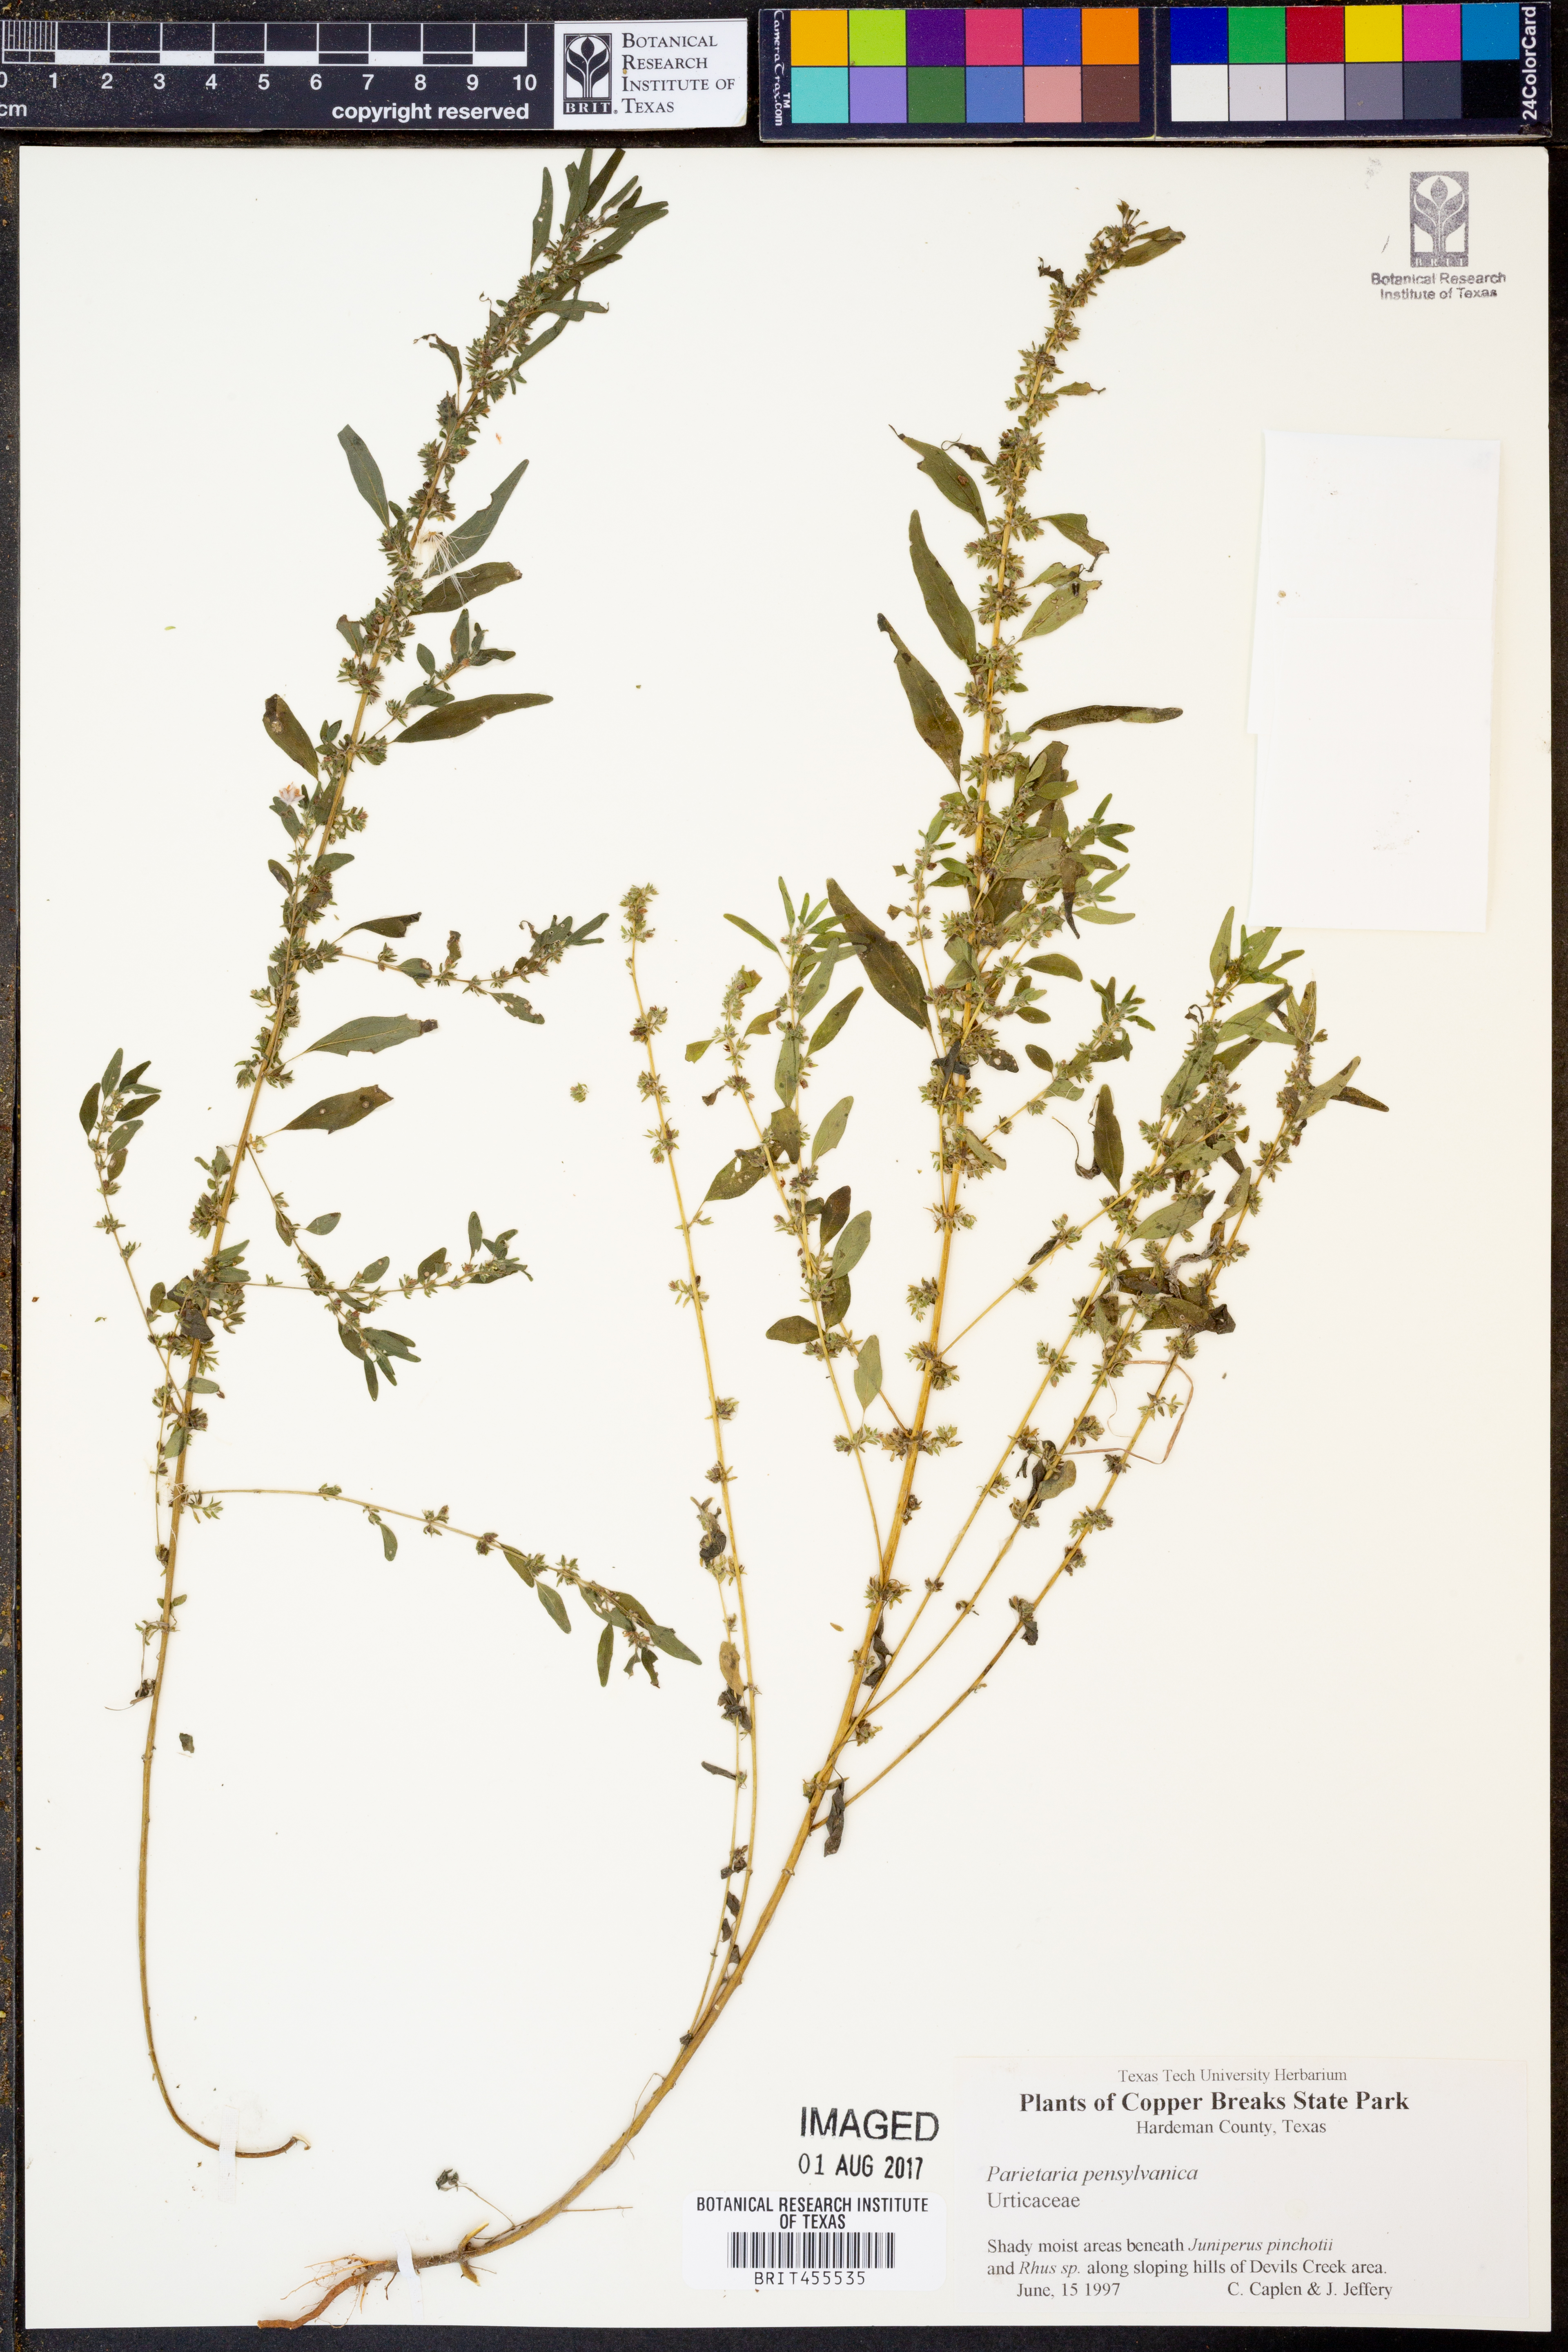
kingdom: Plantae
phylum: Tracheophyta
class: Magnoliopsida
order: Rosales
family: Urticaceae
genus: Parietaria
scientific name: Parietaria pensylvanica
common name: Pennsylvania pellitory
